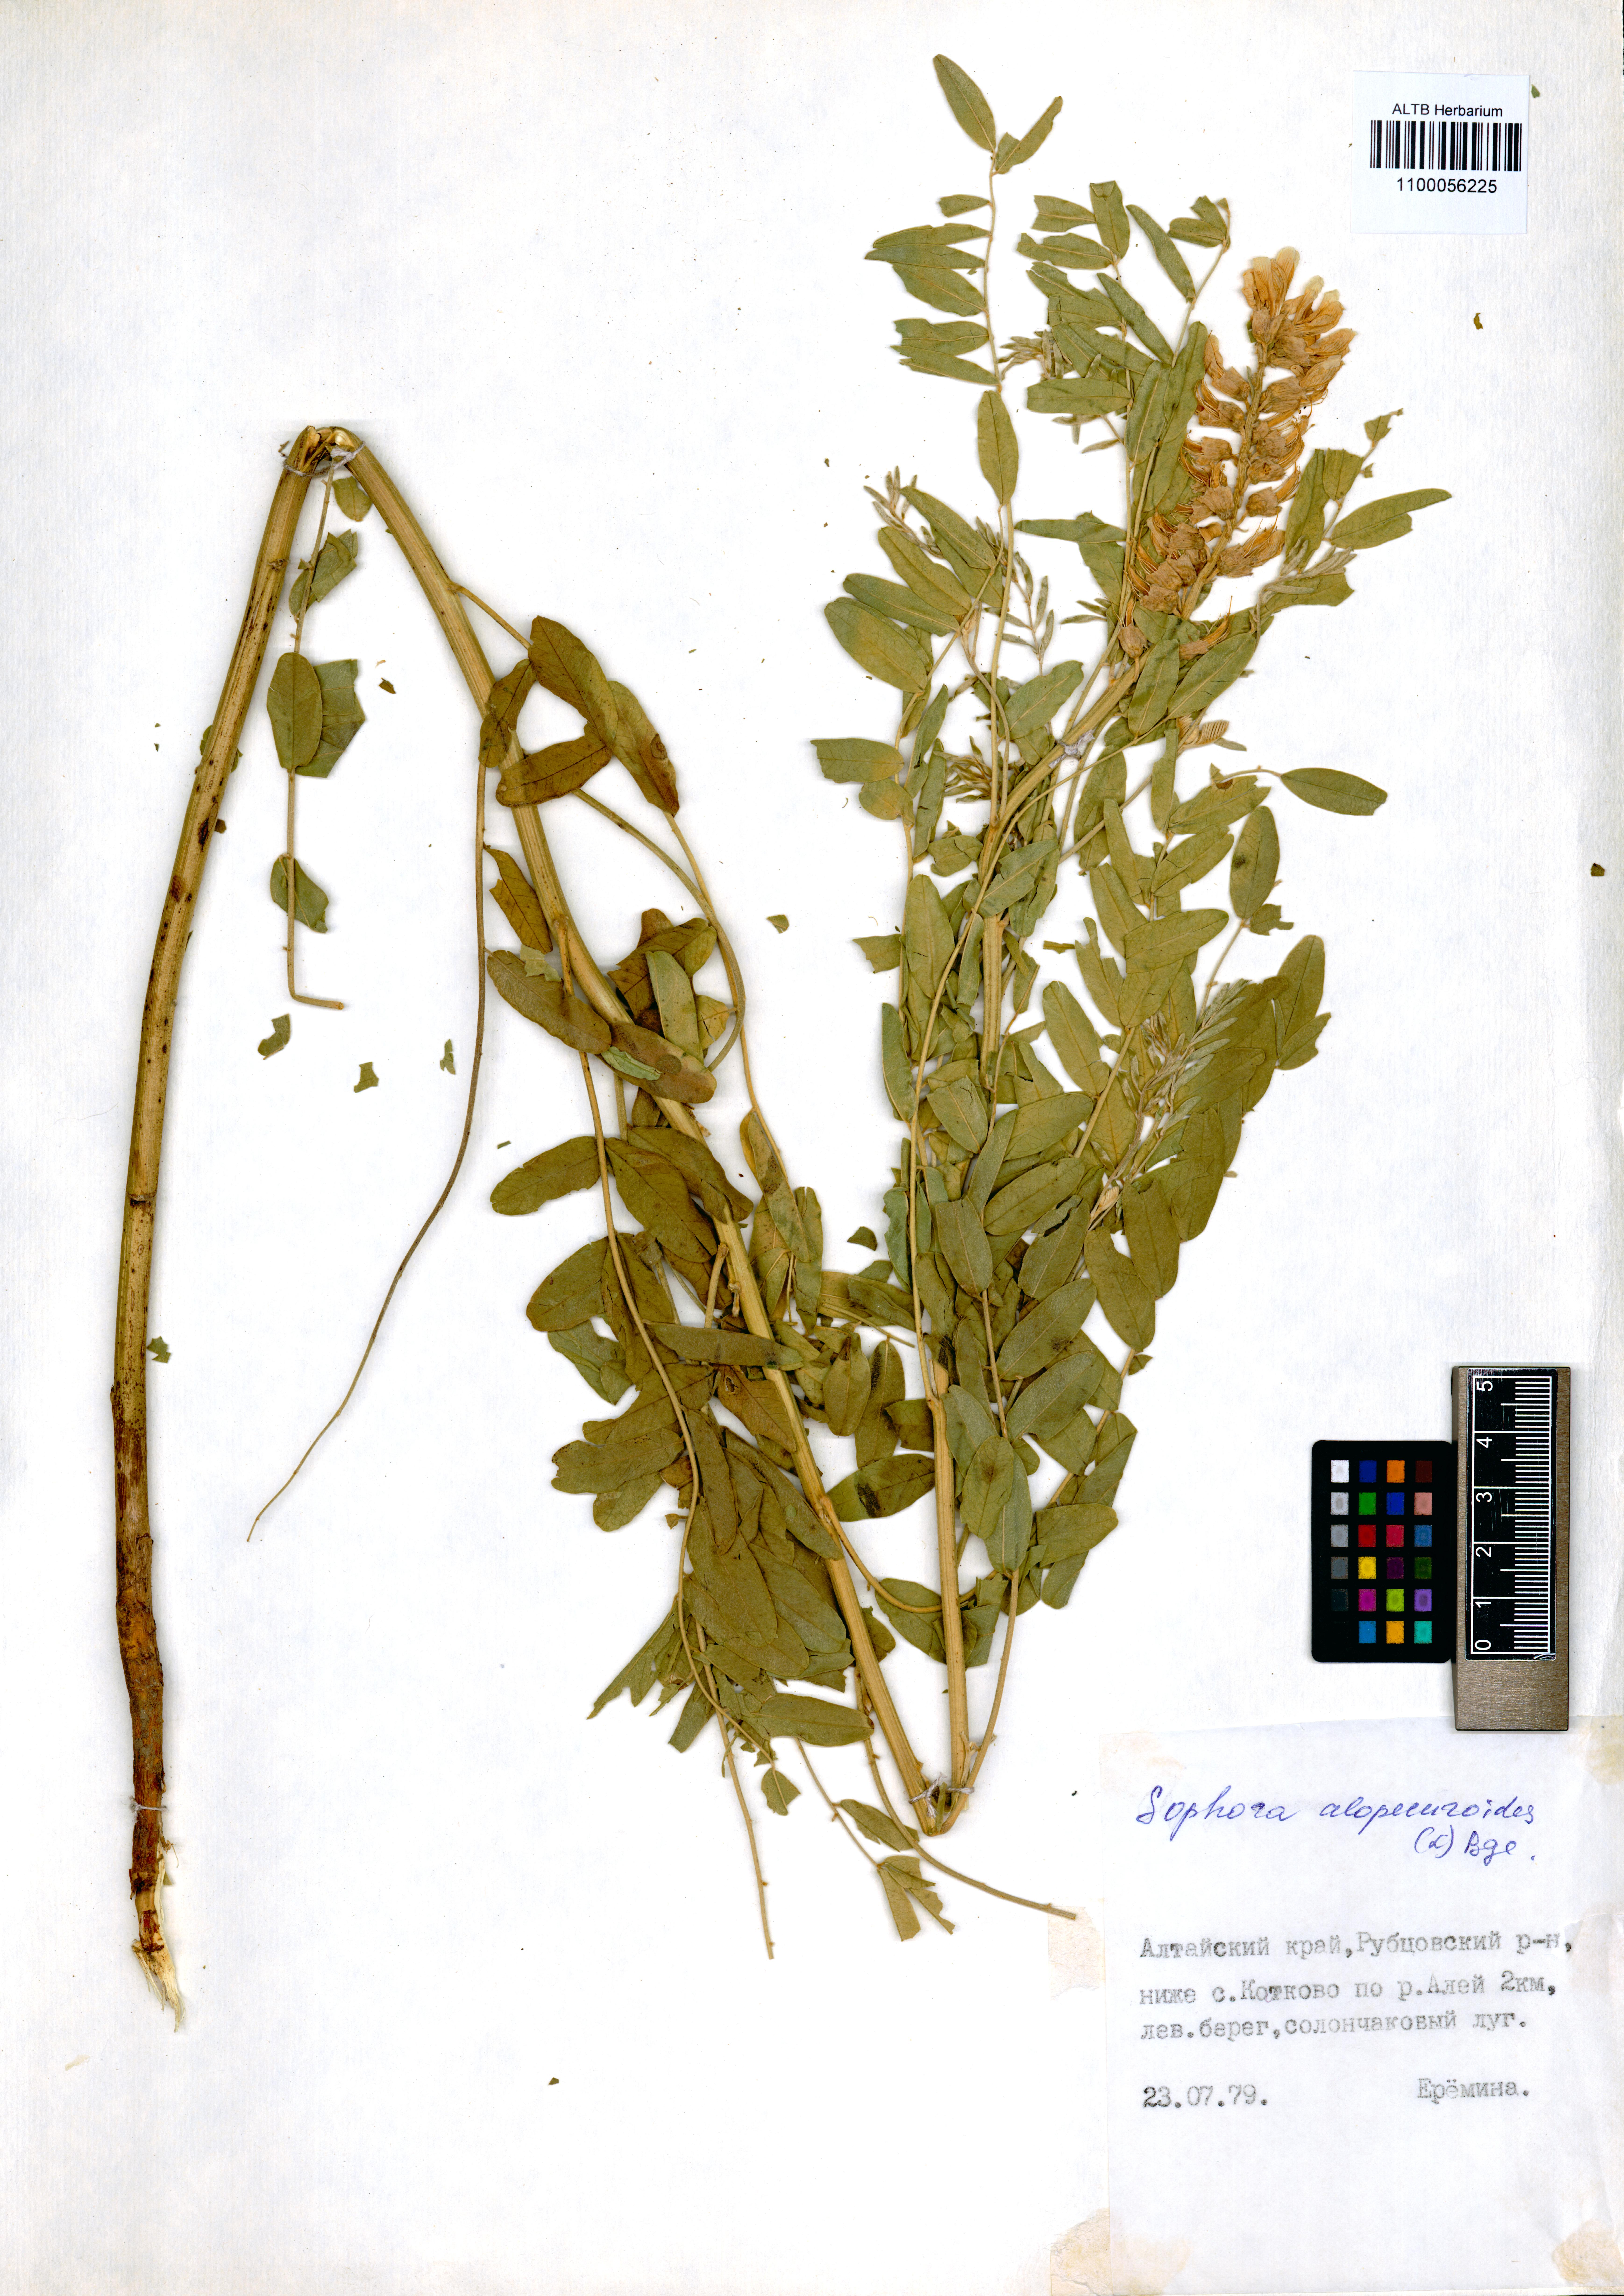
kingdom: Plantae
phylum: Tracheophyta
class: Magnoliopsida
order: Fabales
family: Fabaceae
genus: Sophora
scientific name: Sophora alopecuroides
